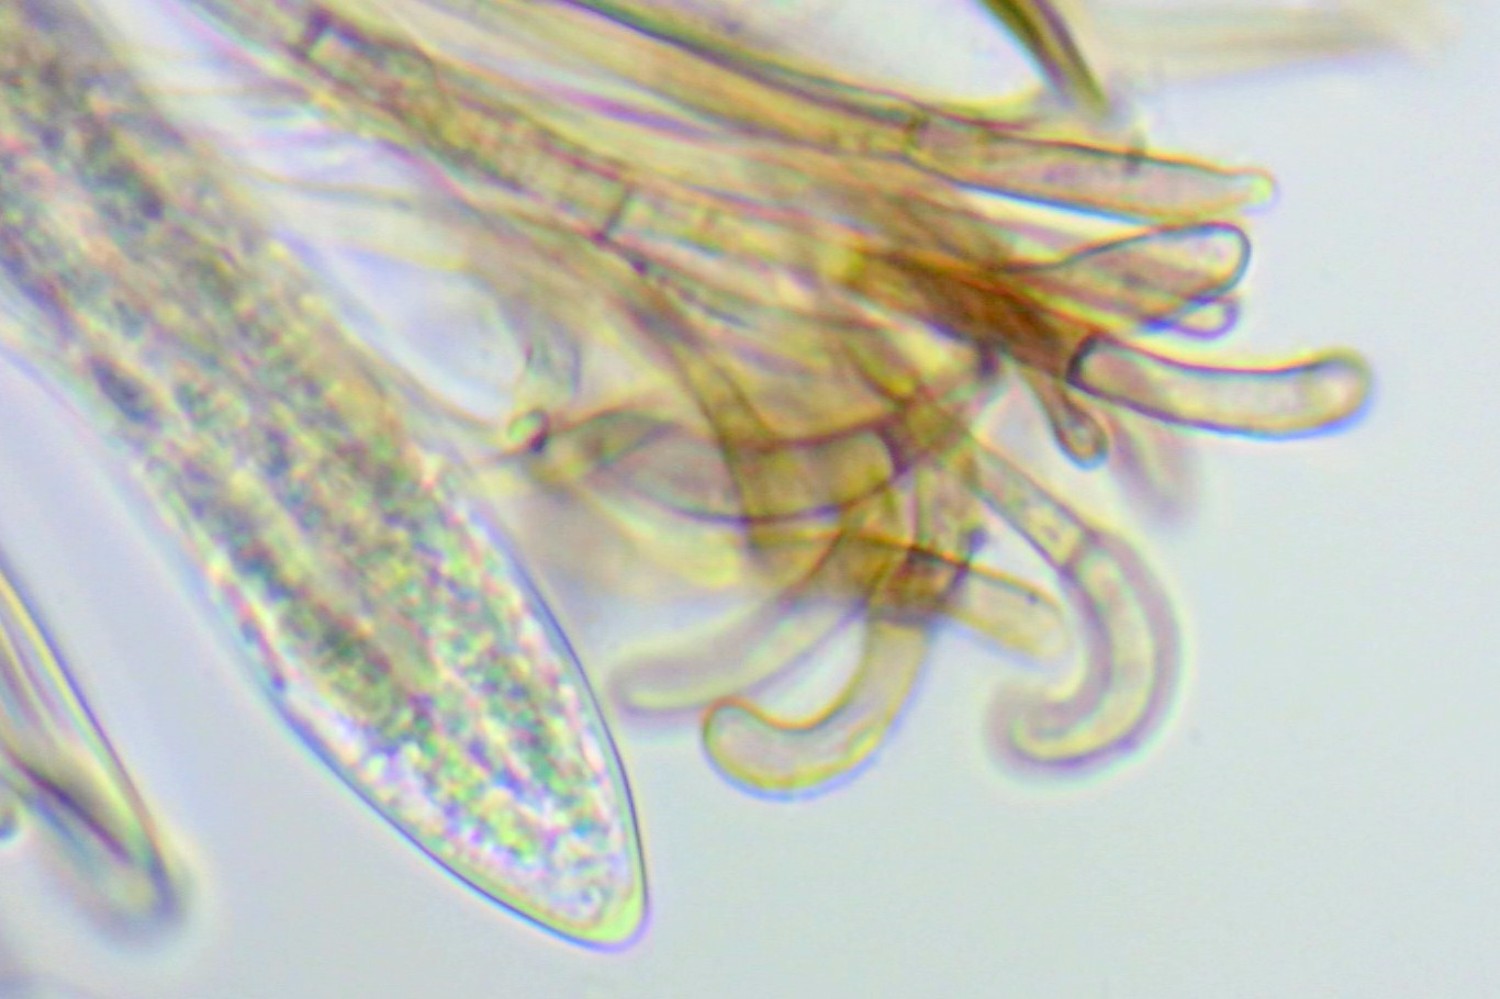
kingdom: Fungi
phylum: Ascomycota
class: Geoglossomycetes
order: Geoglossales
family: Geoglossaceae
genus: Trichoglossum
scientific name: Trichoglossum hirsutum
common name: håret jordtunge
